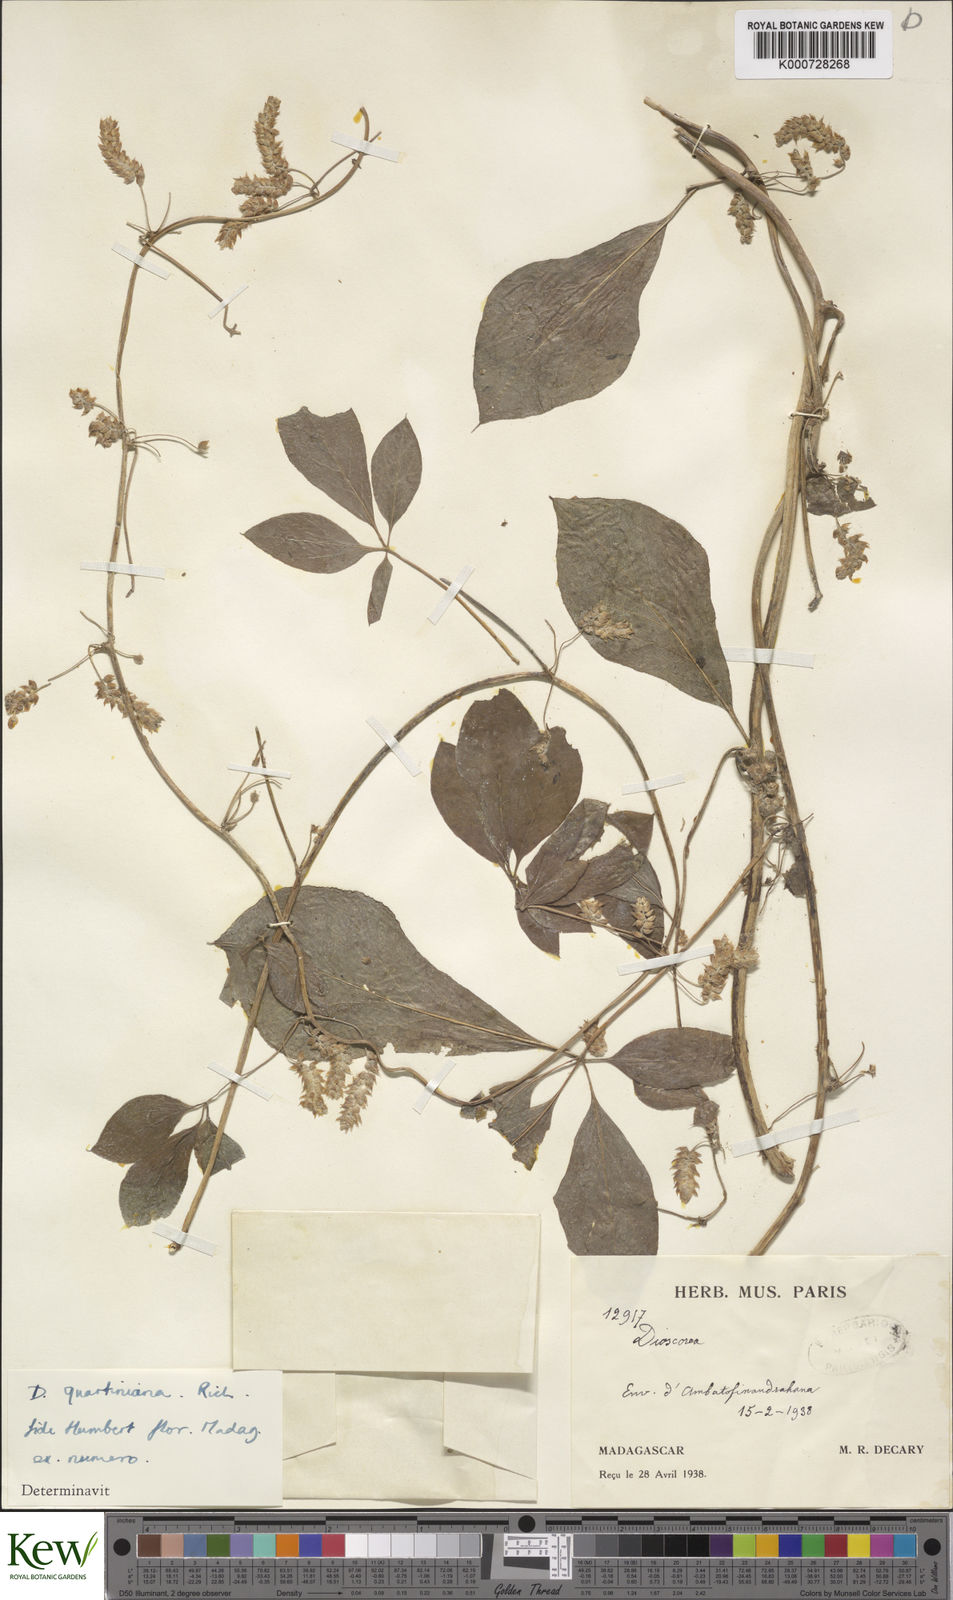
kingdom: Plantae
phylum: Tracheophyta
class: Liliopsida
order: Dioscoreales
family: Dioscoreaceae
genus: Dioscorea
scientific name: Dioscorea quartiniana
